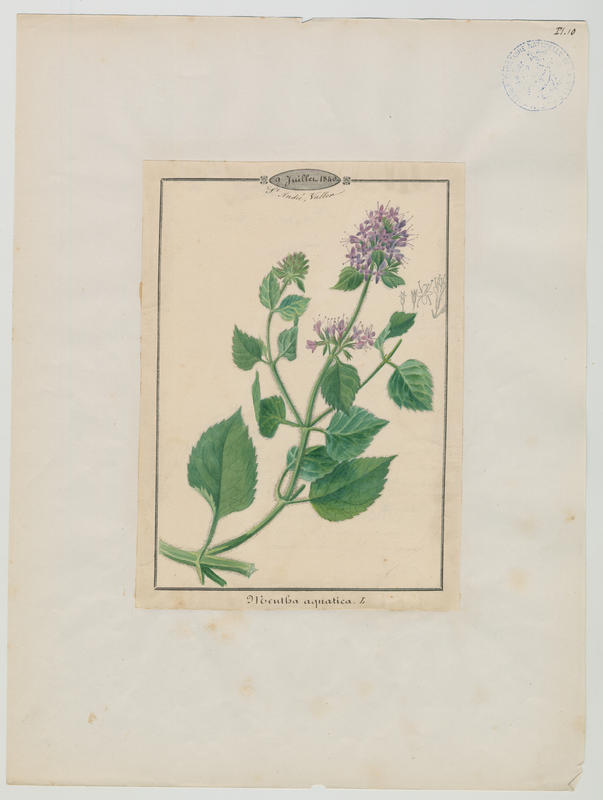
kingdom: Plantae
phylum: Tracheophyta
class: Magnoliopsida
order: Lamiales
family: Lamiaceae
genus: Mentha
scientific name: Mentha aquatica
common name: Water mint
